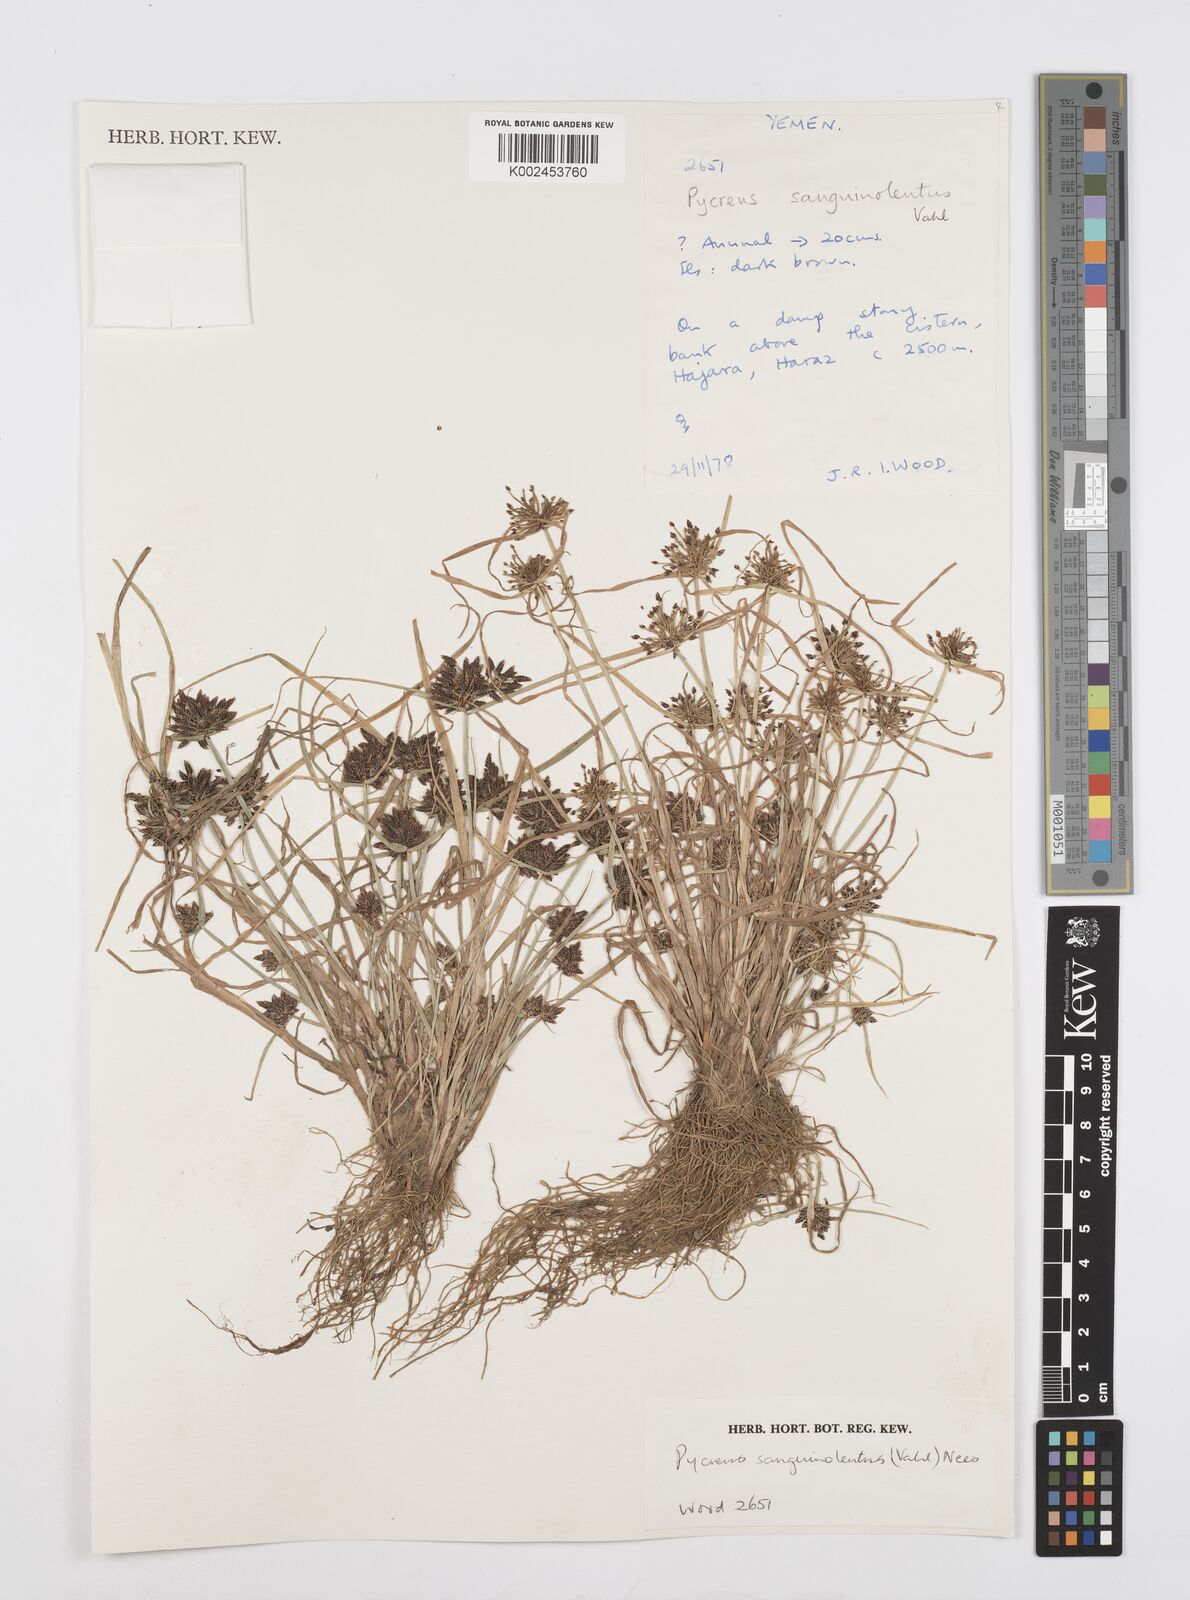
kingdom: Plantae
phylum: Tracheophyta
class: Liliopsida
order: Poales
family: Cyperaceae
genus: Cyperus
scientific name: Cyperus sanguinolentus
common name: Purpleglume flatsedge
